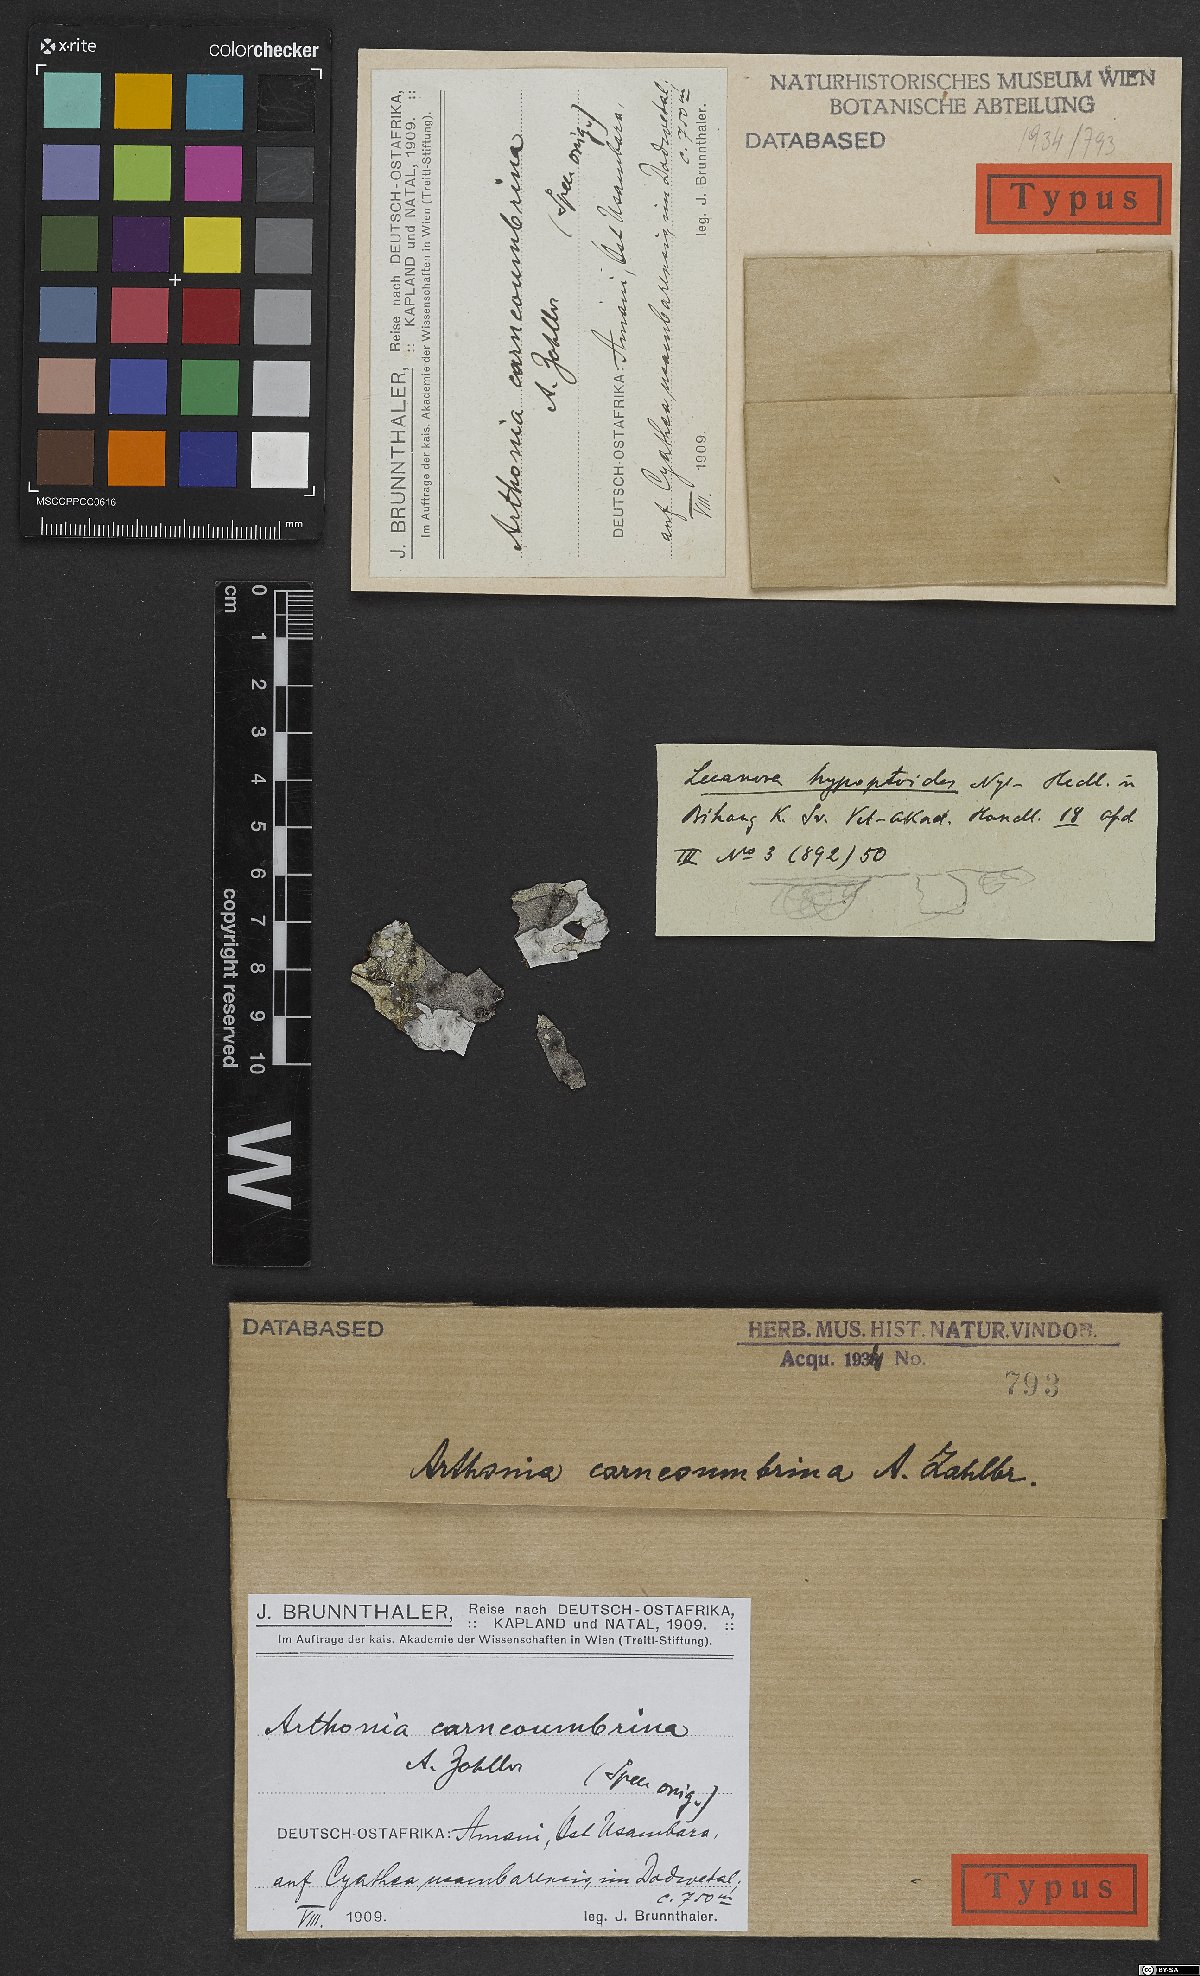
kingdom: Fungi
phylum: Ascomycota
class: Arthoniomycetes
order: Arthoniales
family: Arthoniaceae
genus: Coniocarpon
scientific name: Coniocarpon carneoumbrinum
